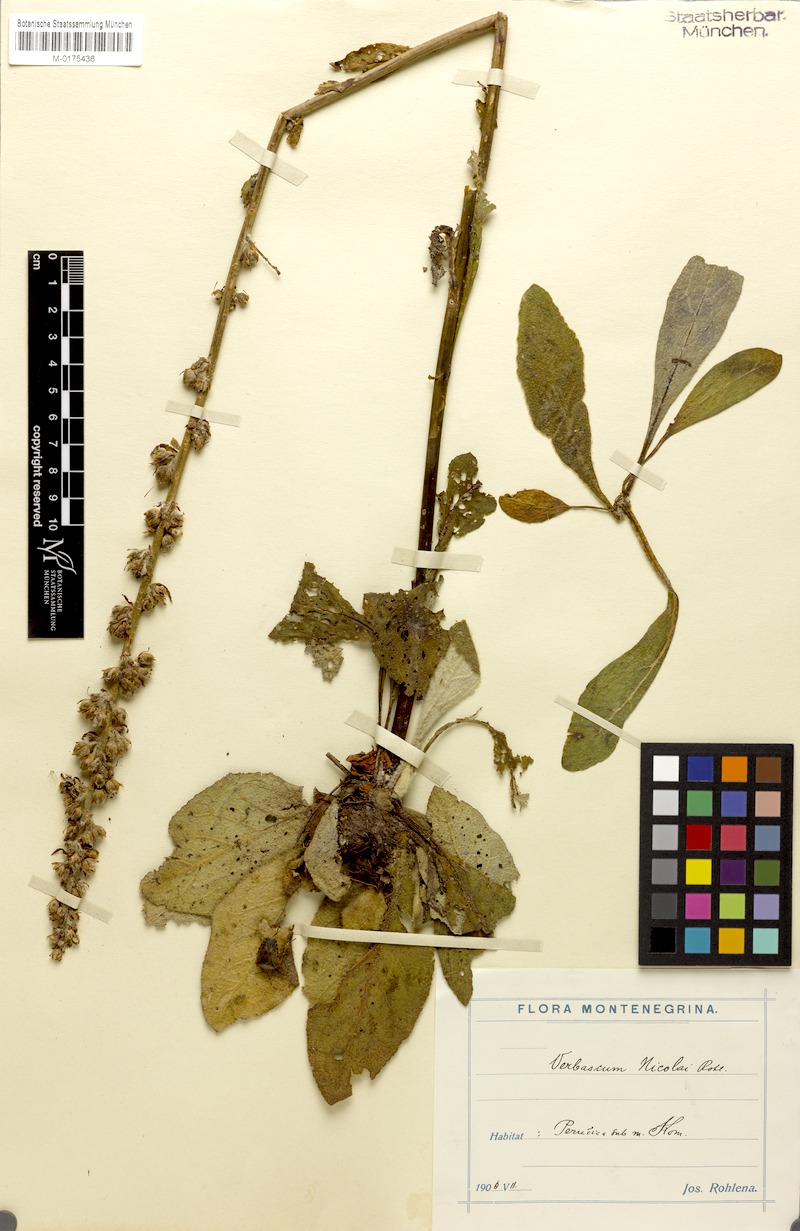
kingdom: Plantae
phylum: Tracheophyta
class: Magnoliopsida
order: Lamiales
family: Scrophulariaceae
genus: Verbascum
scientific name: Verbascum nicolai
